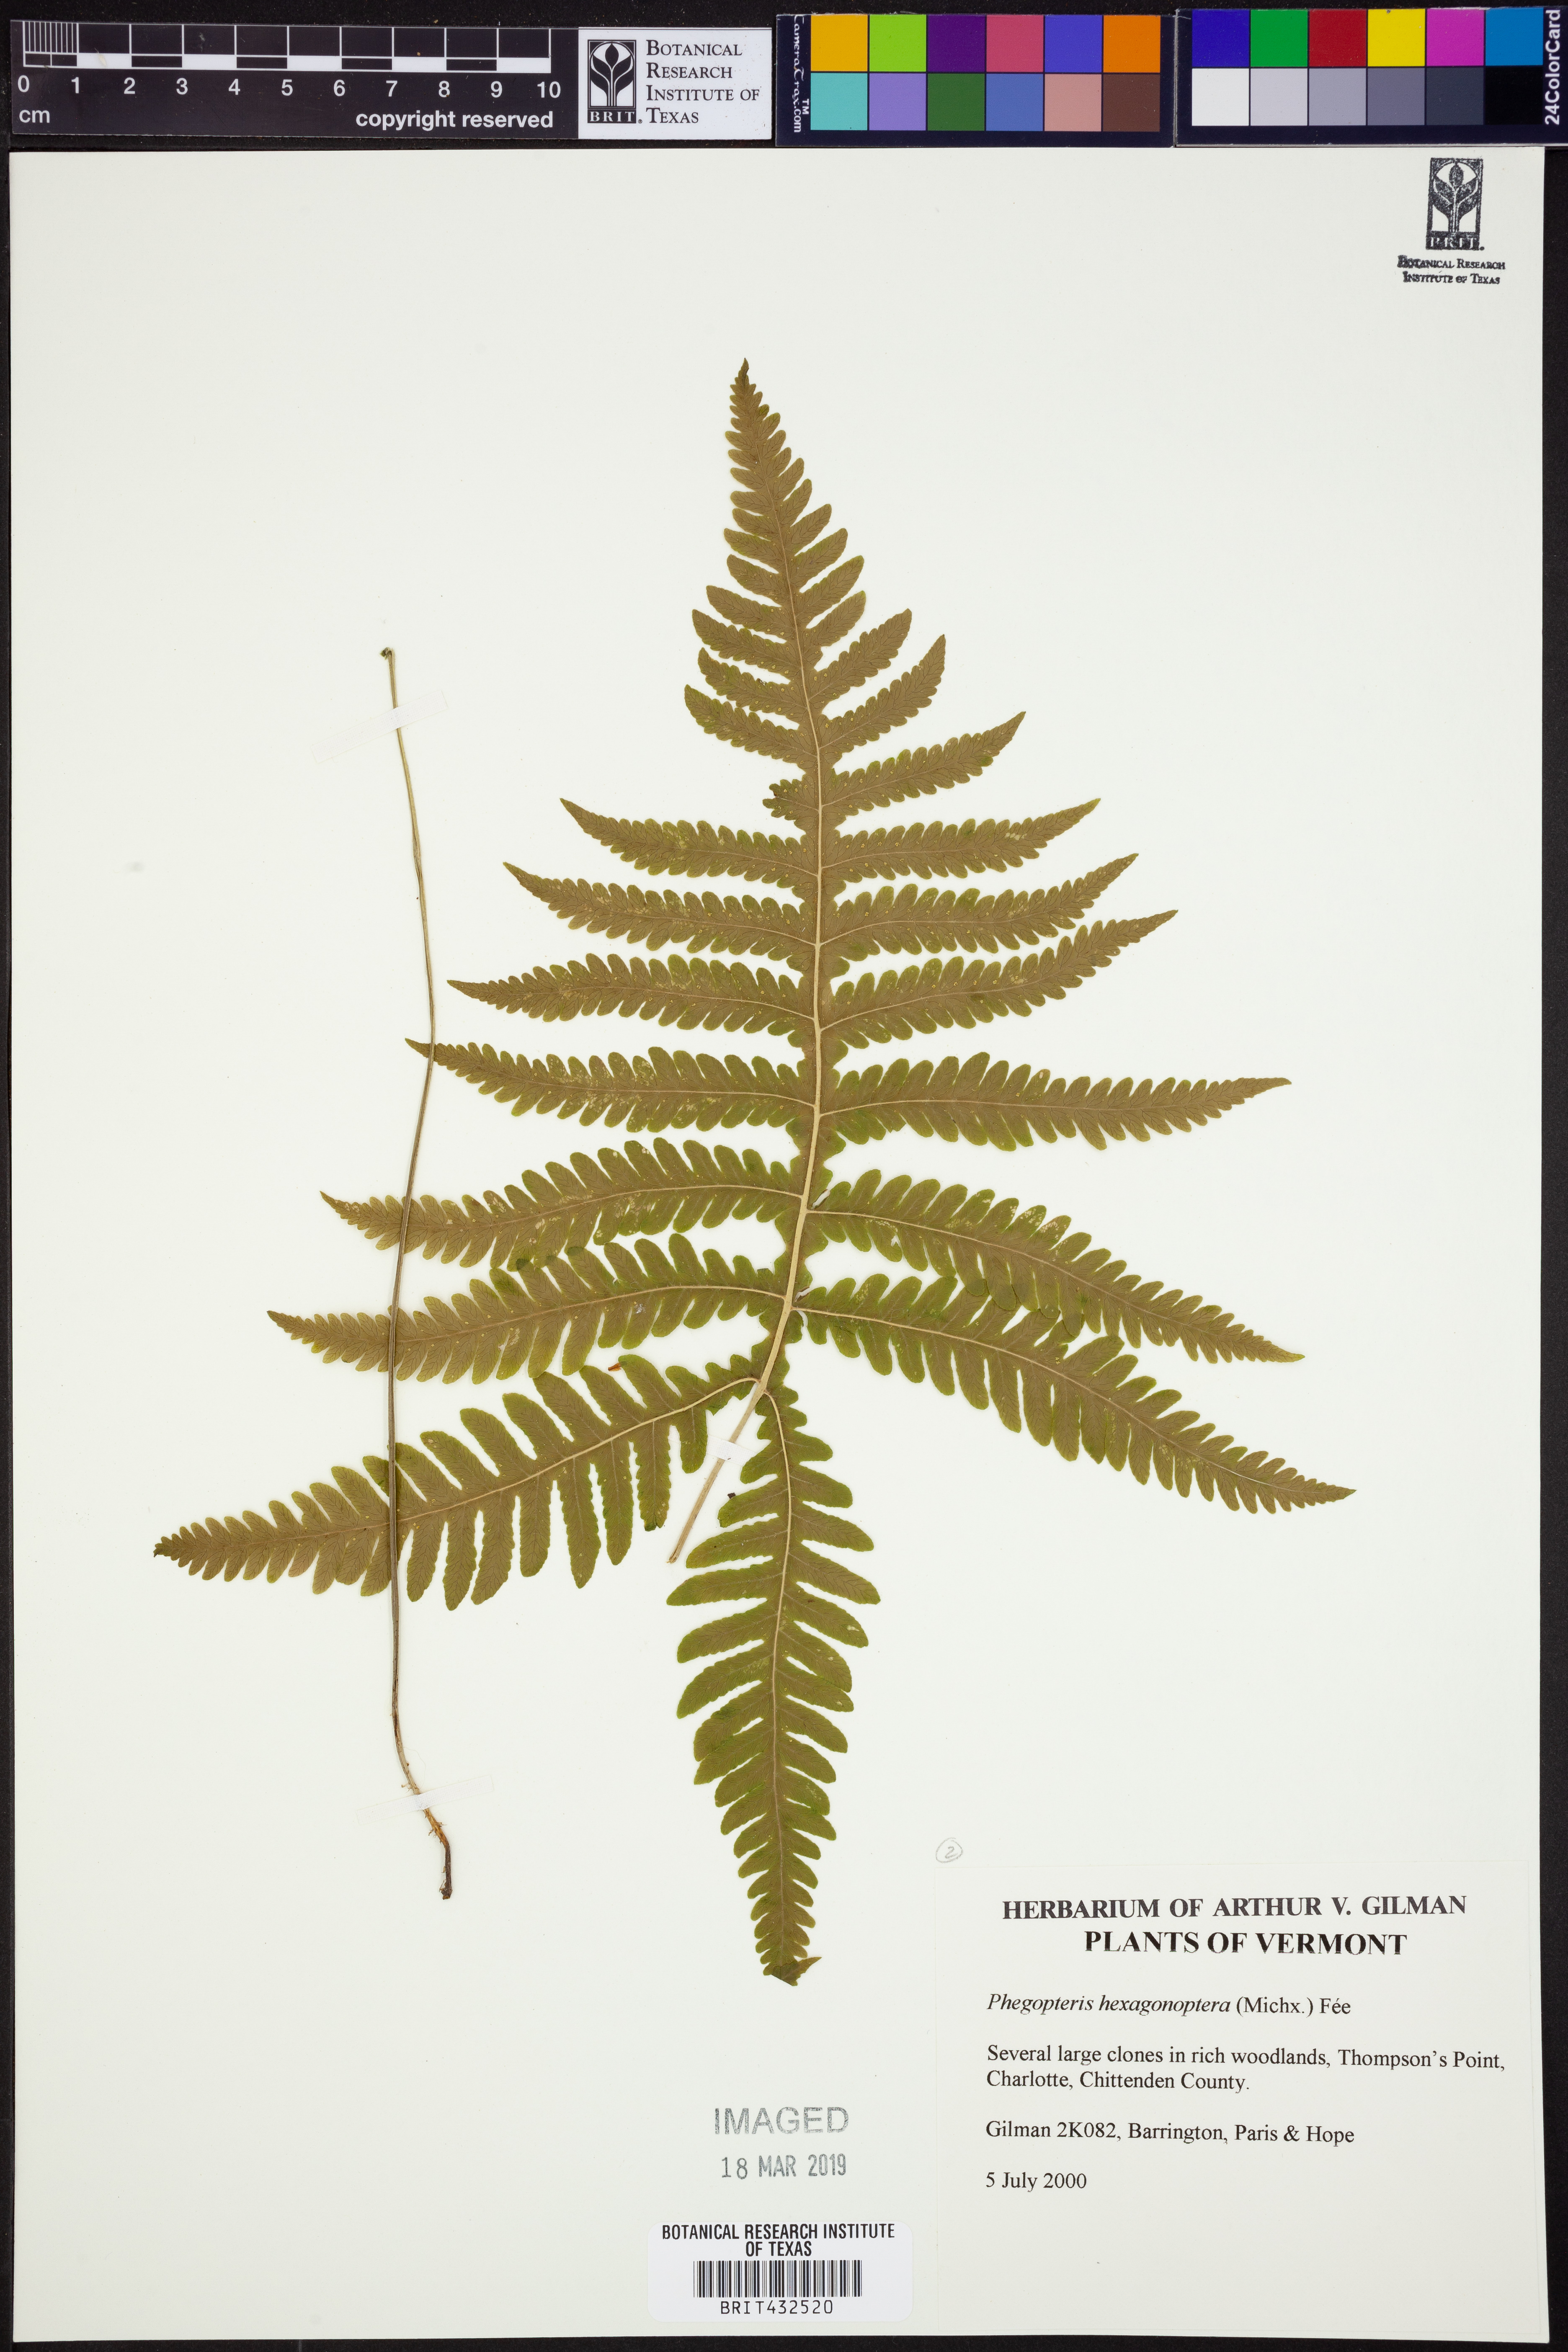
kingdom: Plantae
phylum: Tracheophyta
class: Polypodiopsida
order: Polypodiales
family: Thelypteridaceae
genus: Phegopteris
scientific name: Phegopteris hexagonoptera
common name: Broad beech fern
